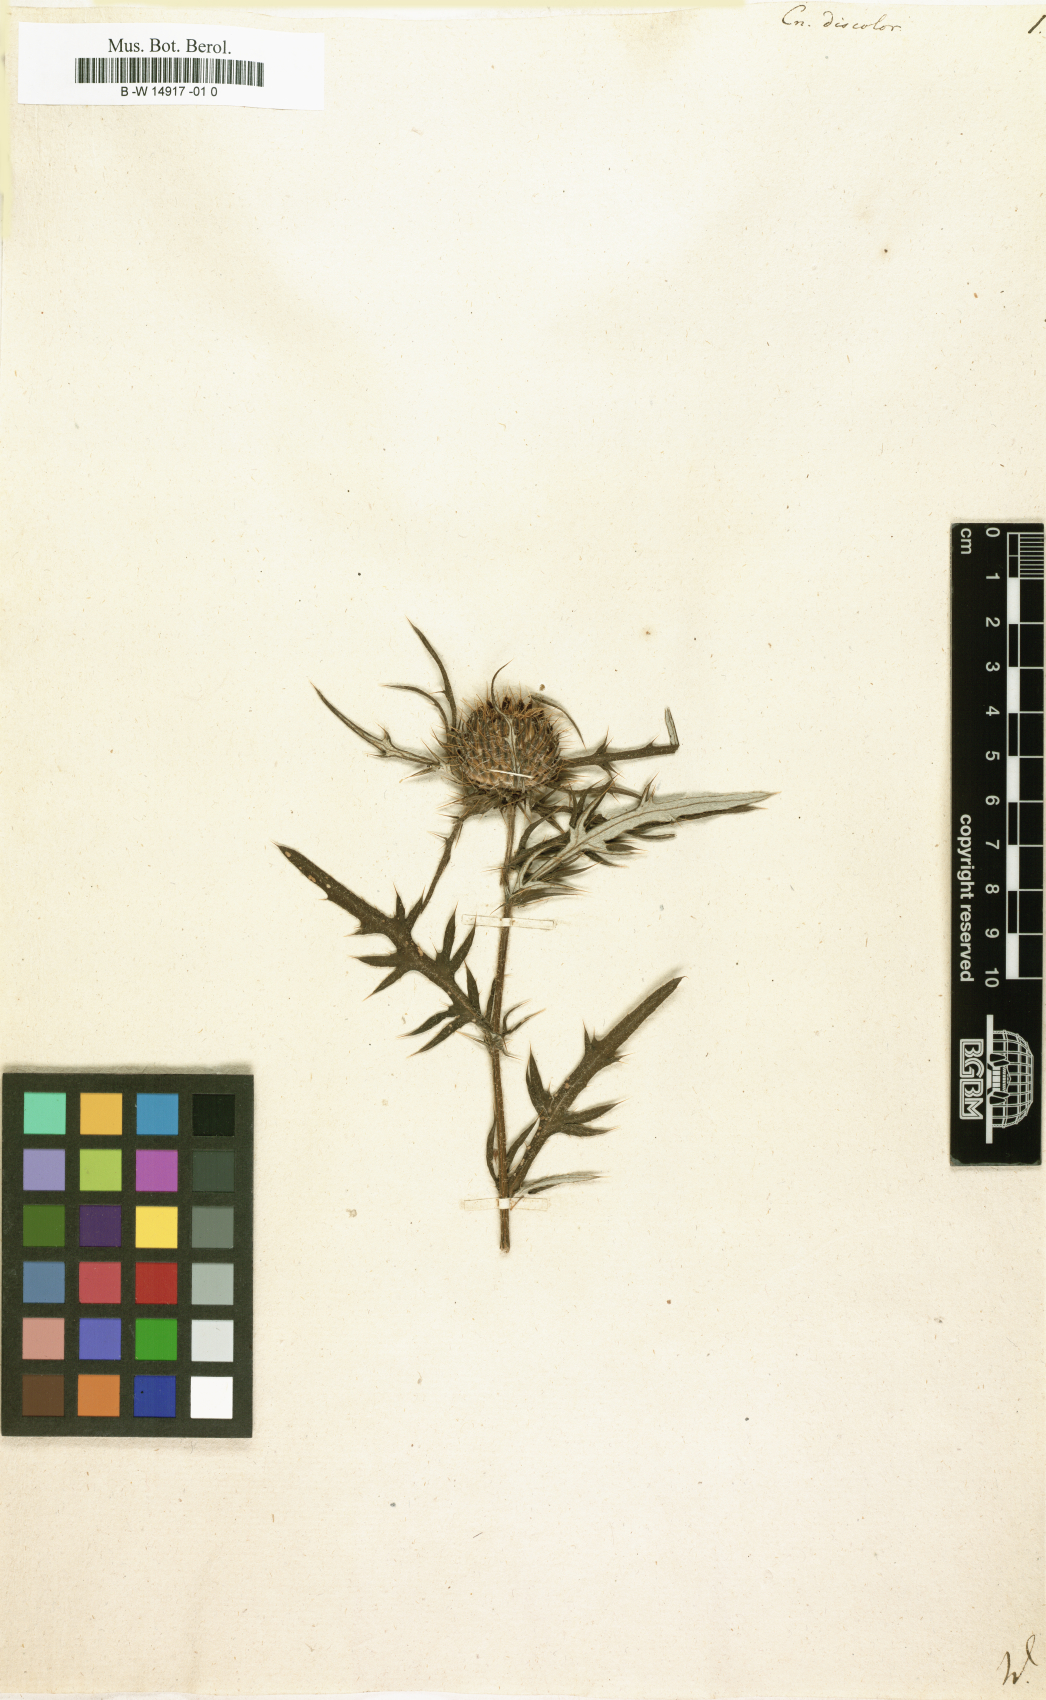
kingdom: Plantae
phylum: Tracheophyta
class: Magnoliopsida
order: Asterales
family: Asteraceae
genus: Cirsium
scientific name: Cirsium Cnicus discolor
